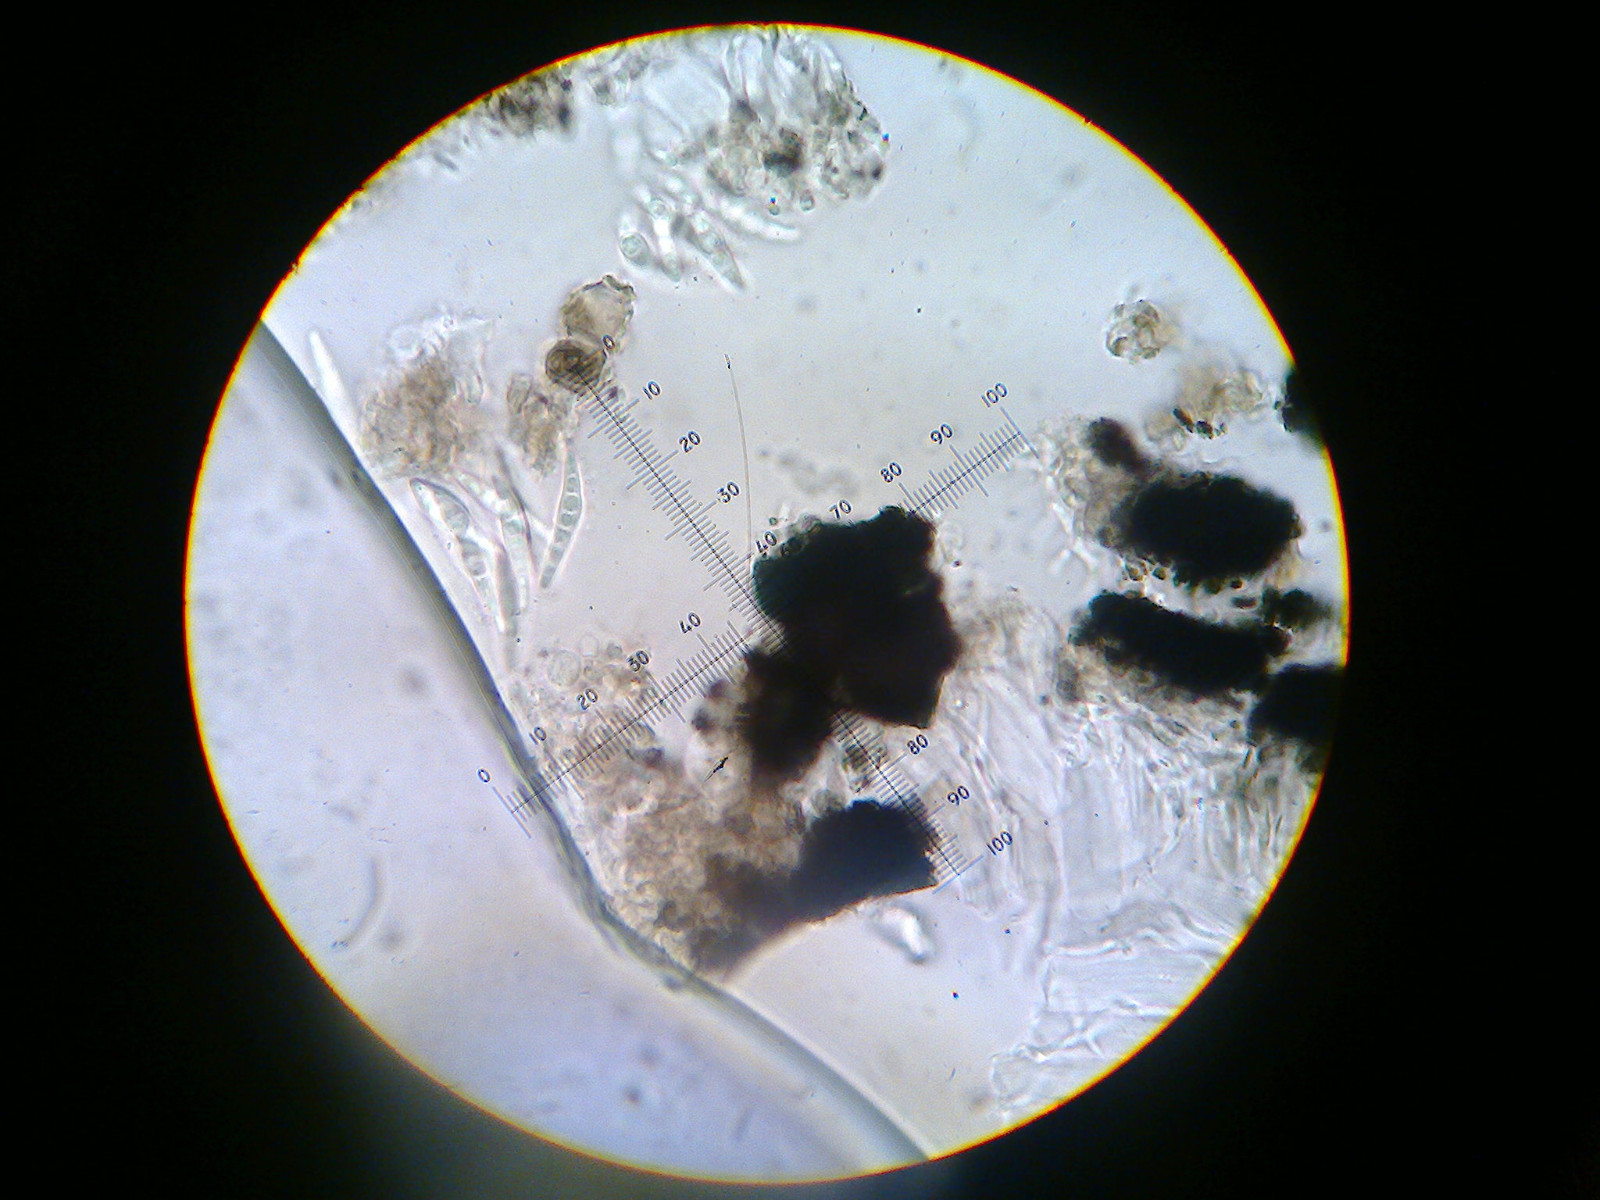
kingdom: Fungi
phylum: Ascomycota
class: Arthoniomycetes
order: Arthoniales
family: Opegraphaceae
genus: Opegrapha
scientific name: Opegrapha niveoatra
